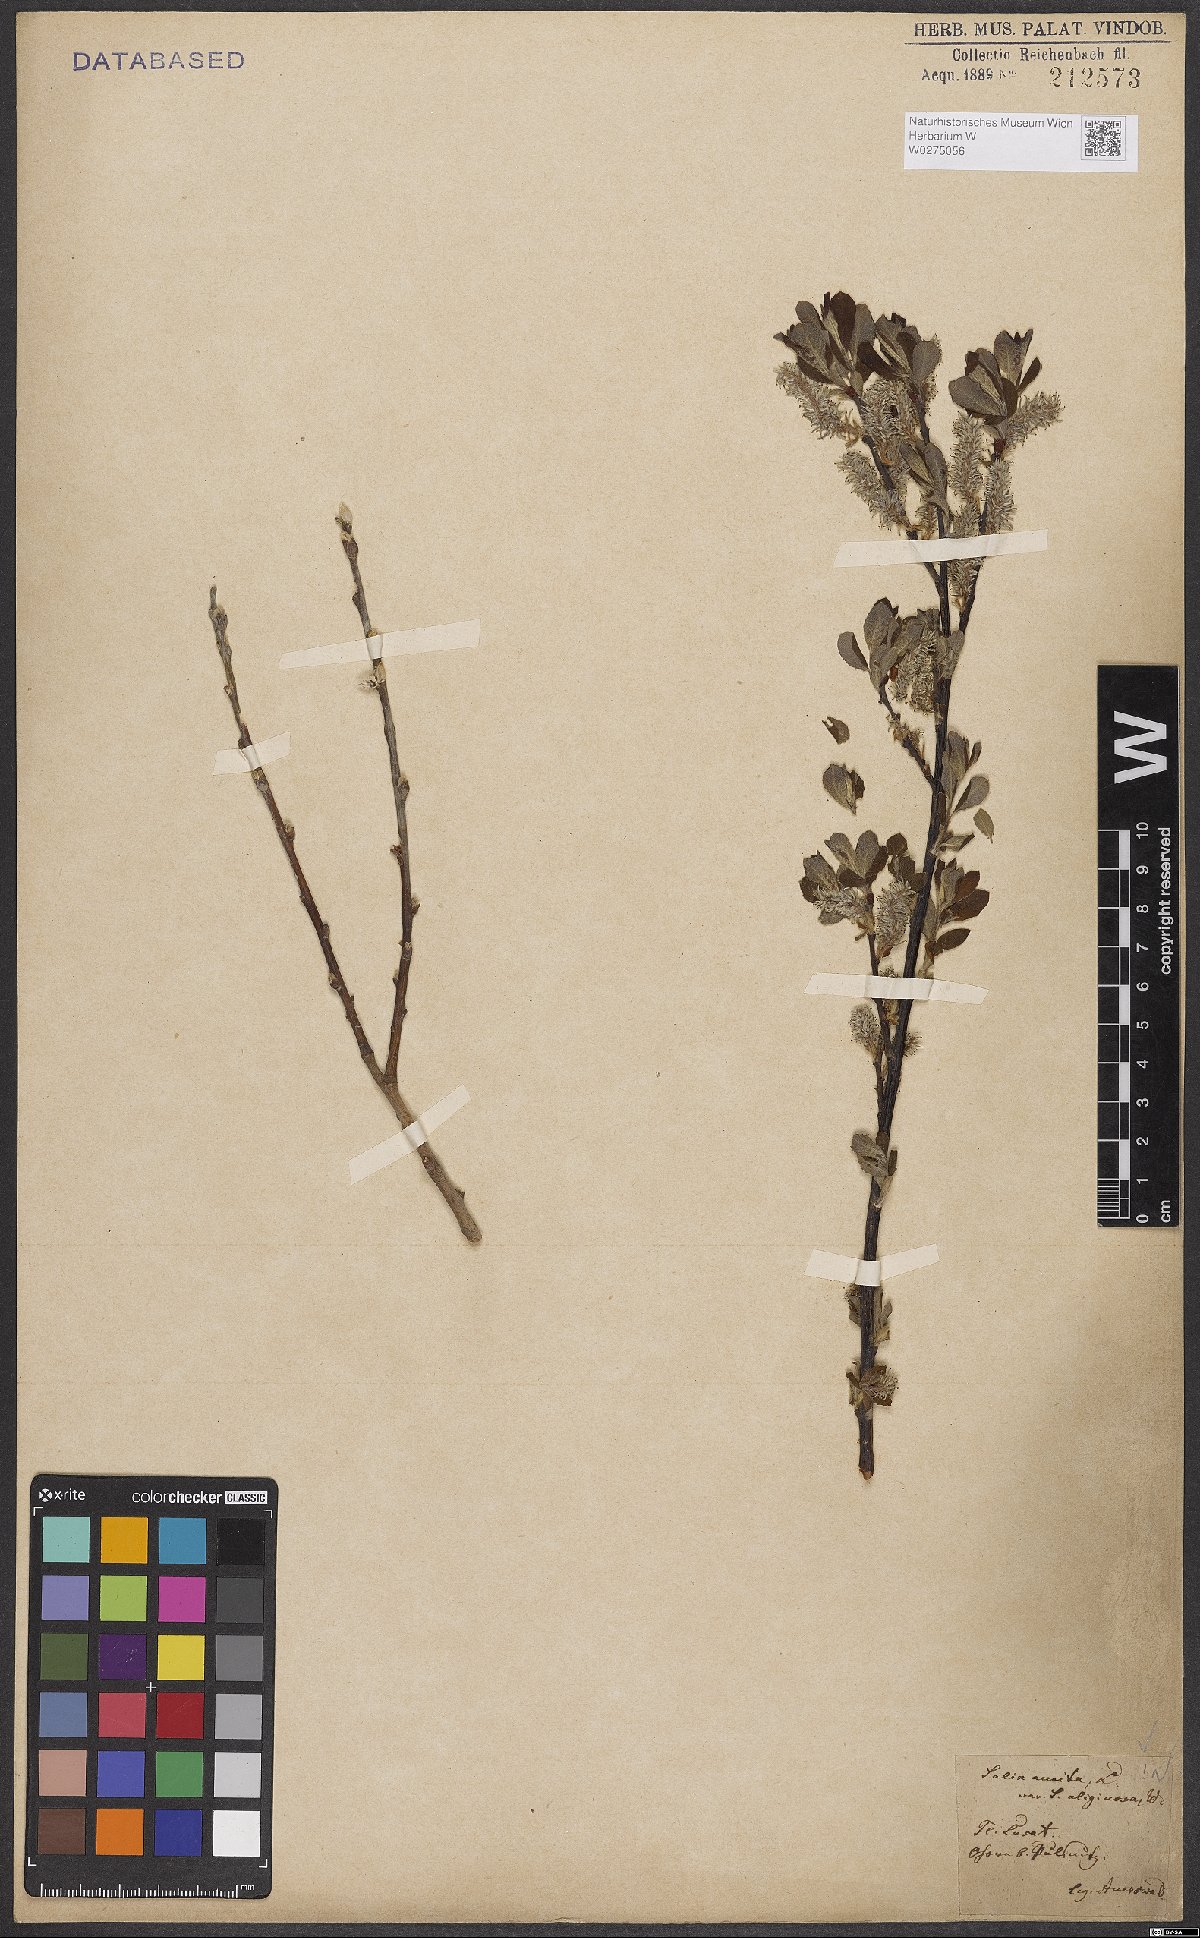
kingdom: Plantae
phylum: Tracheophyta
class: Magnoliopsida
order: Malpighiales
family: Salicaceae
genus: Salix
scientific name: Salix aurita
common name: Eared willow
